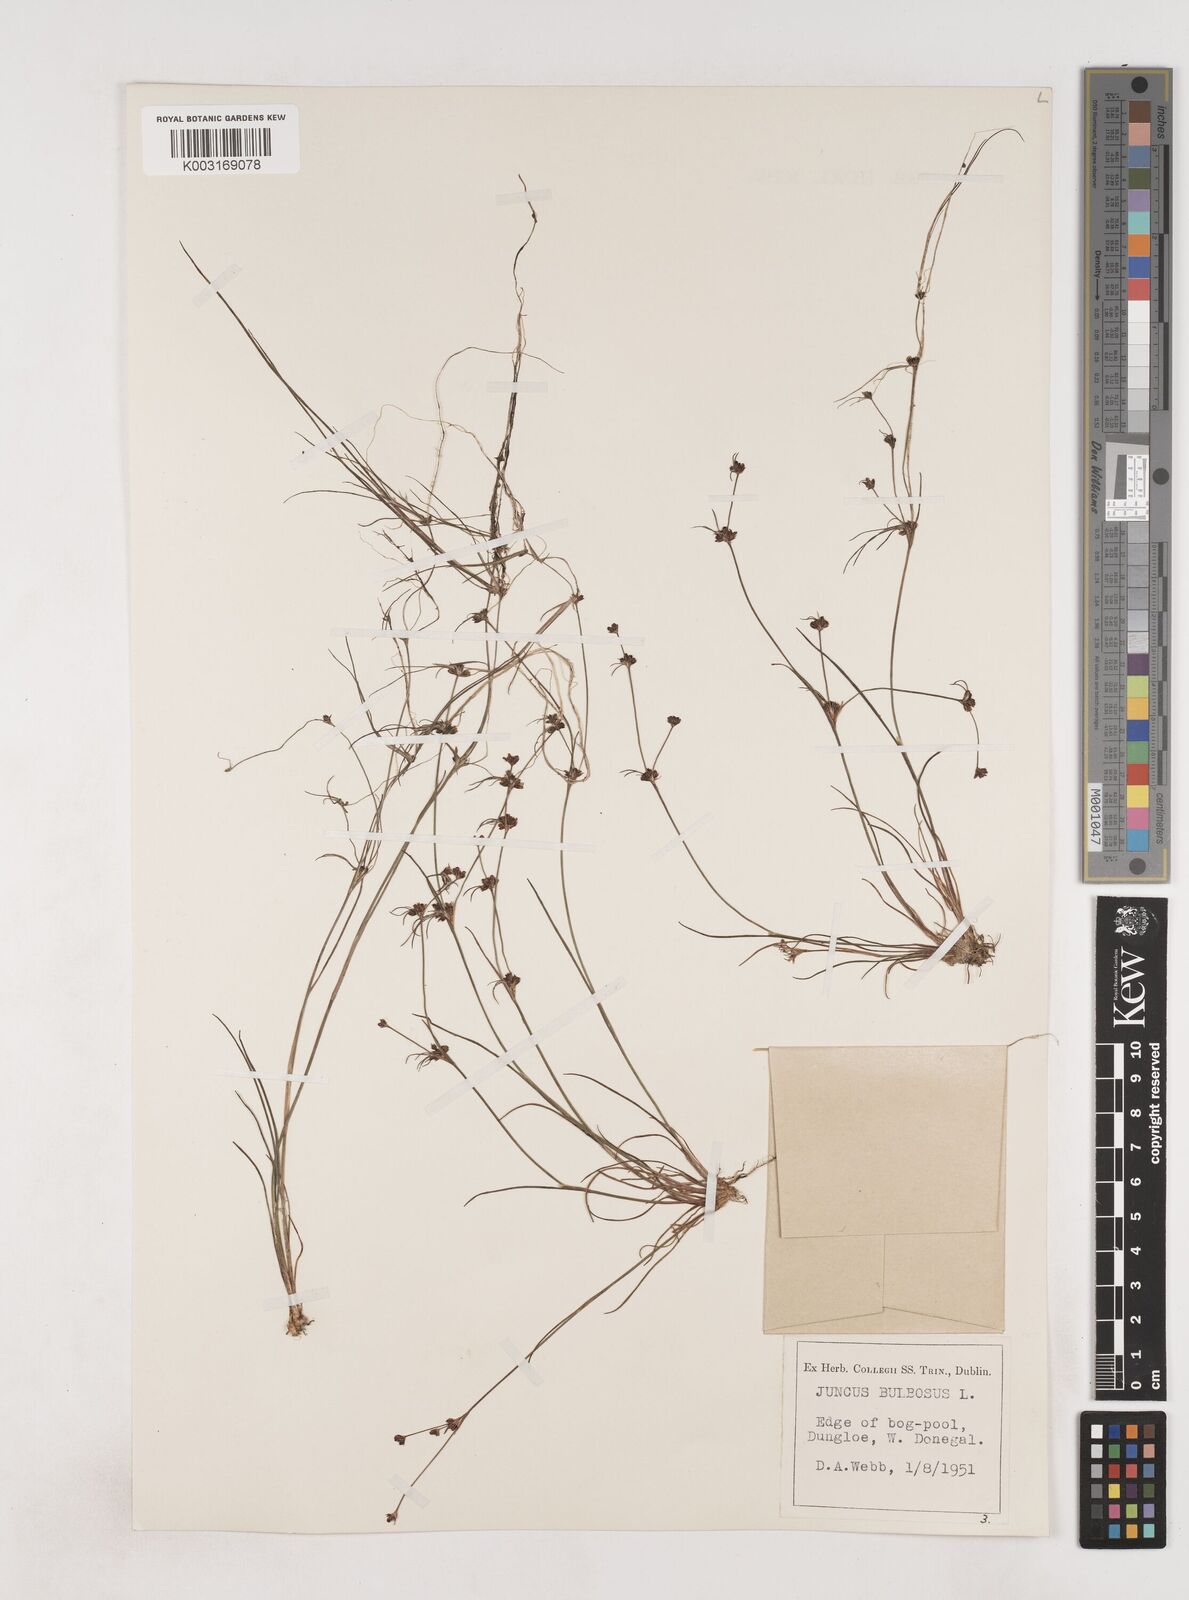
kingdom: Plantae
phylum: Tracheophyta
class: Liliopsida
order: Poales
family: Juncaceae
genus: Juncus
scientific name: Juncus bulbosus
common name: Bulbous rush
